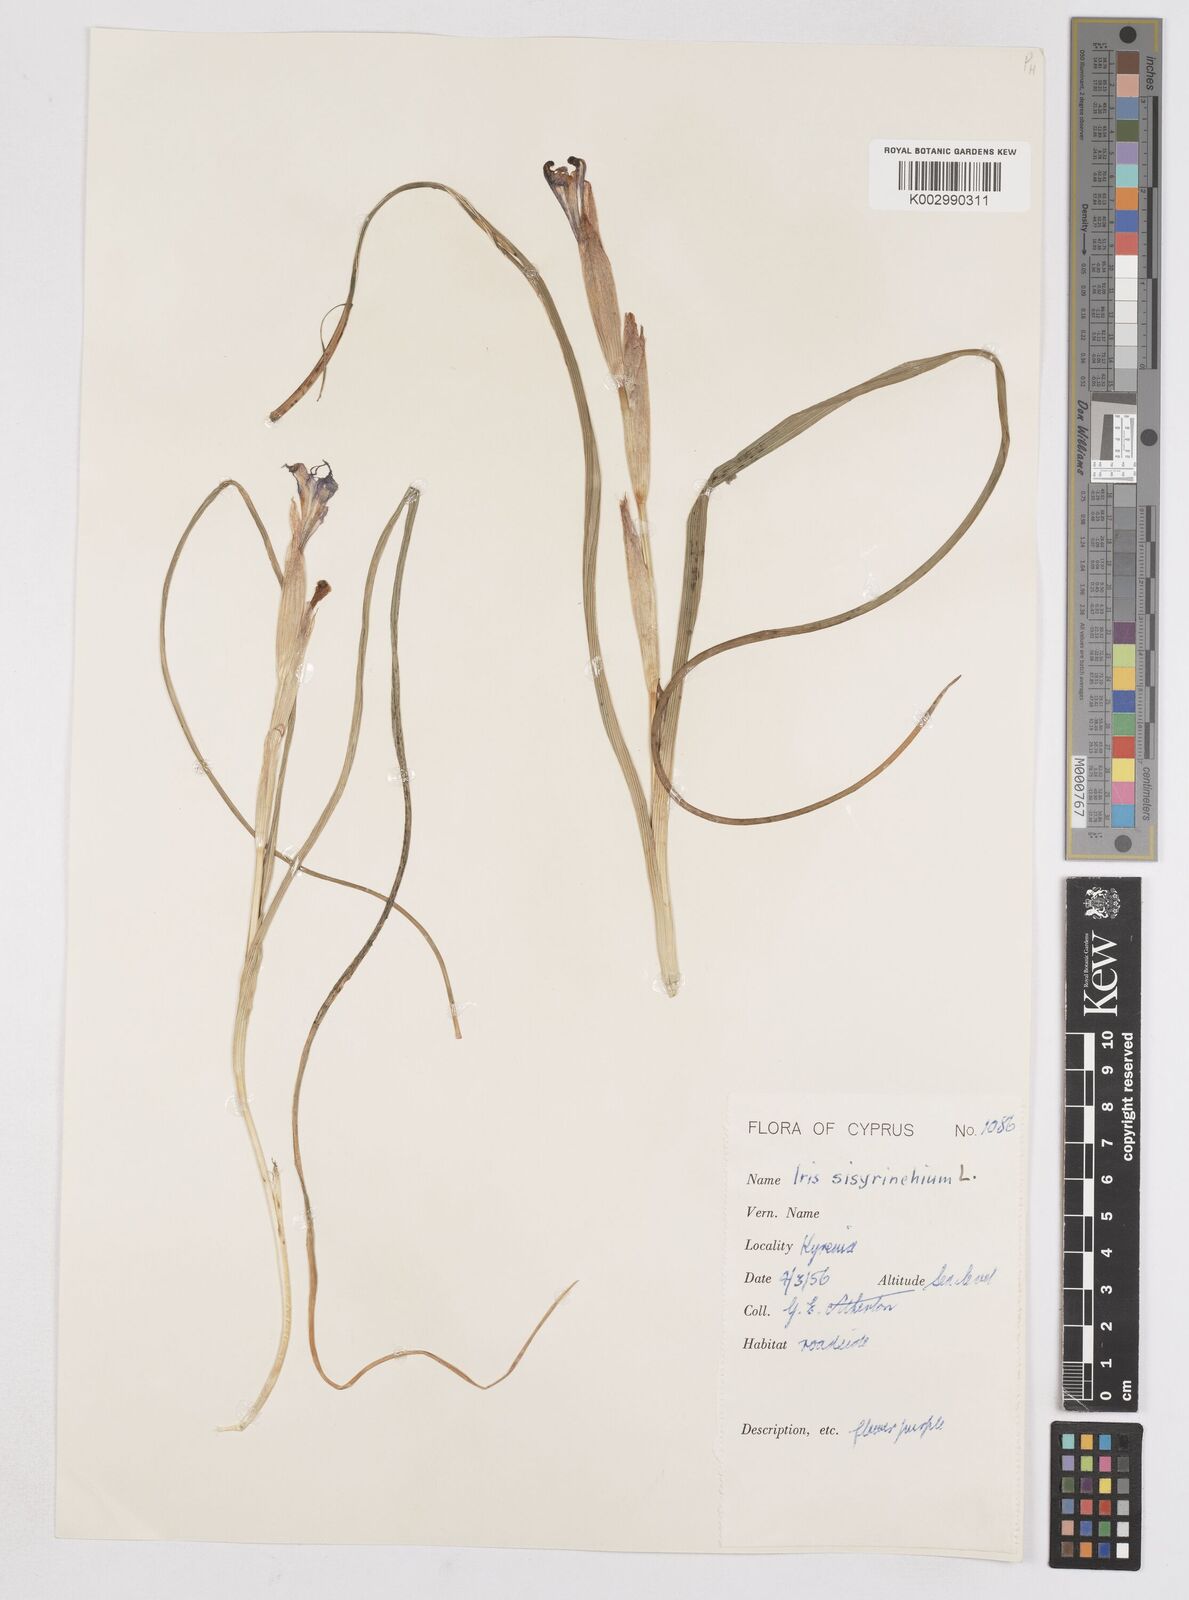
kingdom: Plantae
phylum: Tracheophyta
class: Liliopsida
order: Asparagales
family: Iridaceae
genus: Moraea
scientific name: Moraea sisyrinchium
